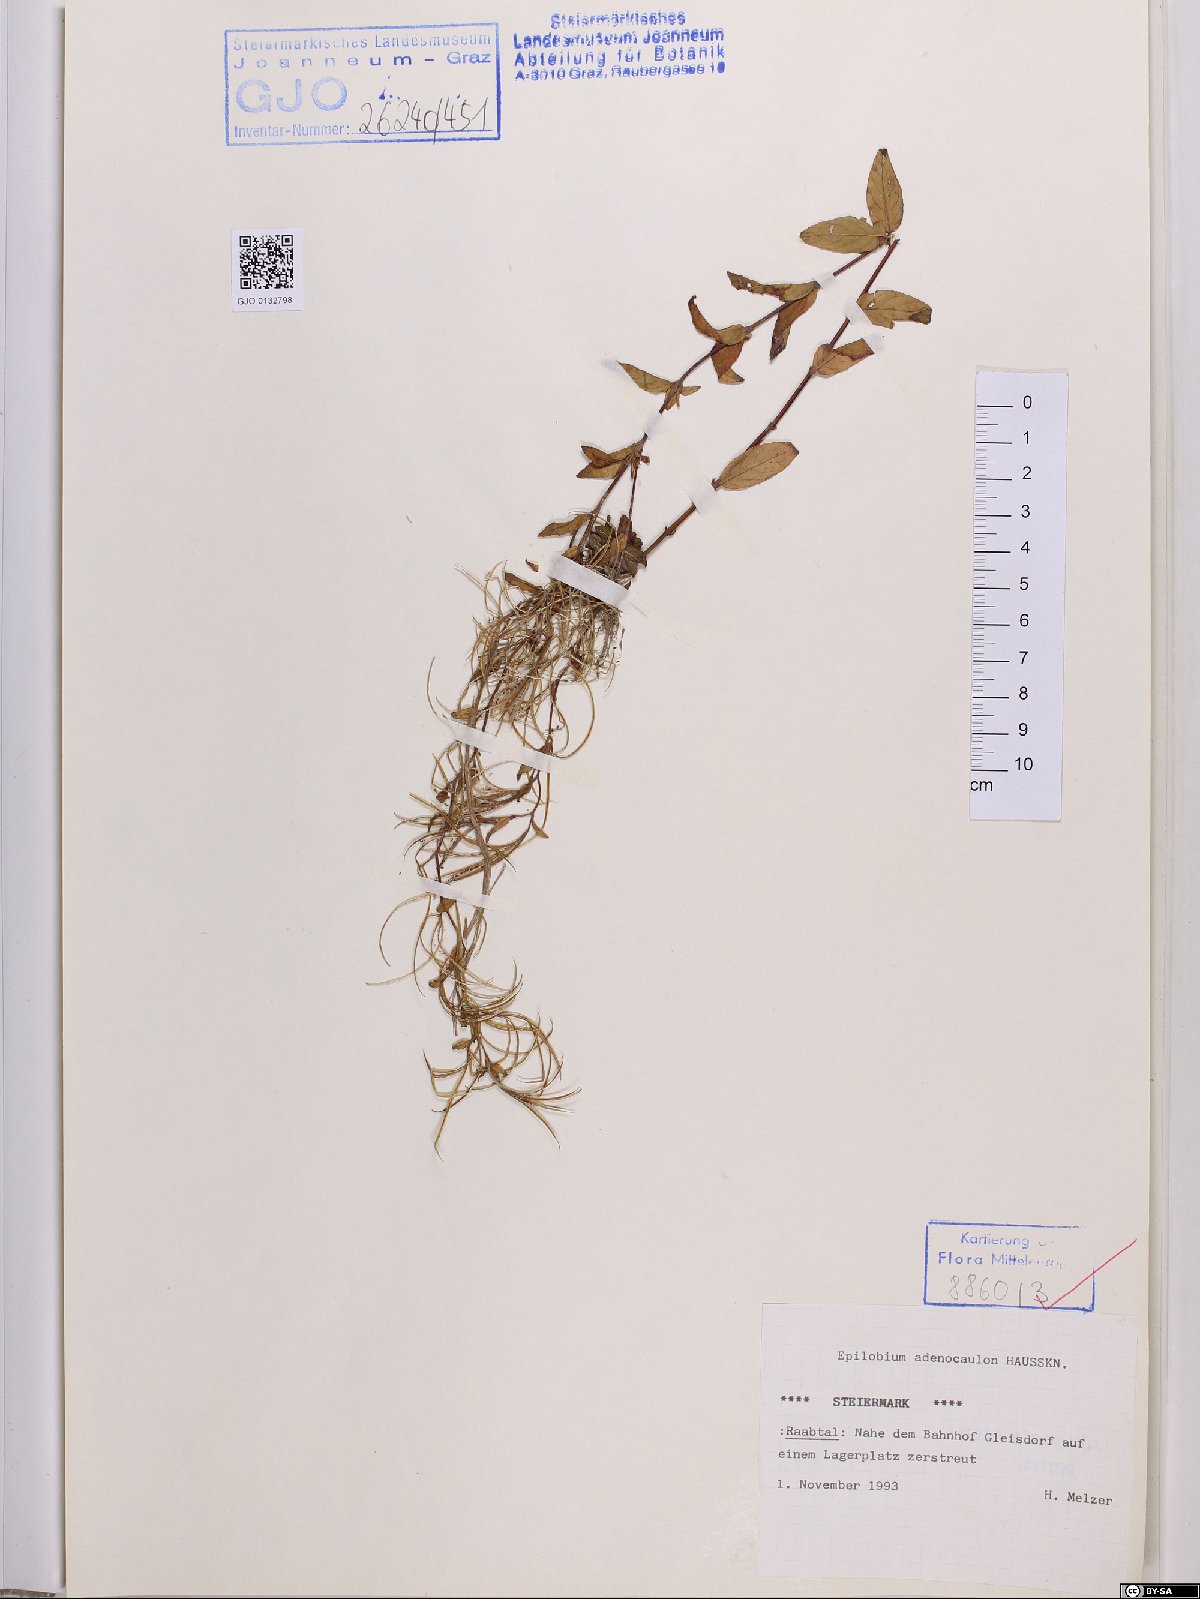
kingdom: Plantae
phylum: Tracheophyta
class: Magnoliopsida
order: Myrtales
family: Onagraceae
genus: Epilobium
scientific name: Epilobium ciliatum
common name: American willowherb
